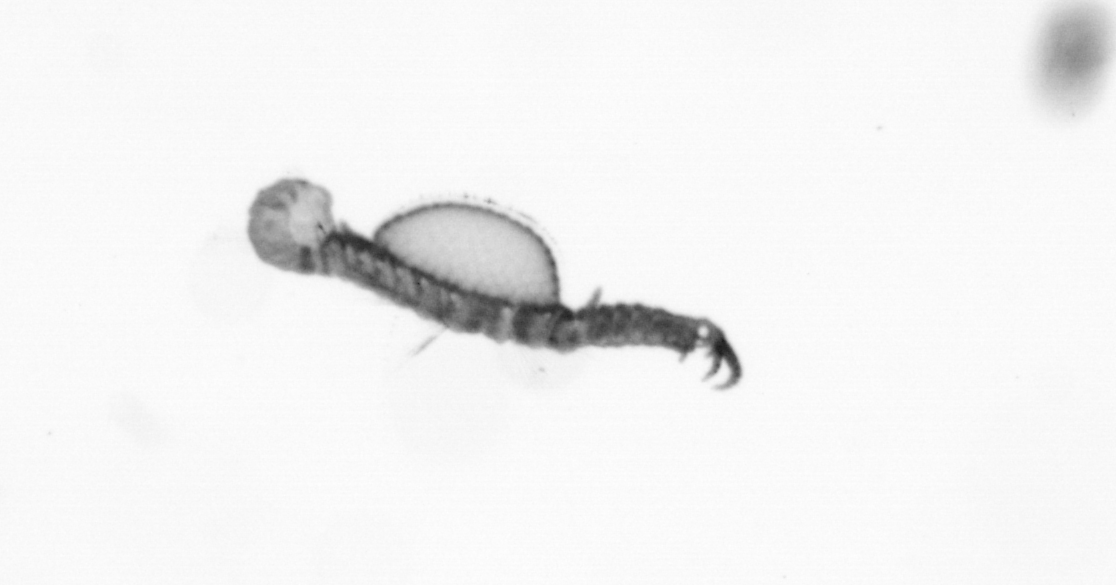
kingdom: Animalia
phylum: Annelida
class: Polychaeta
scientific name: Polychaeta
